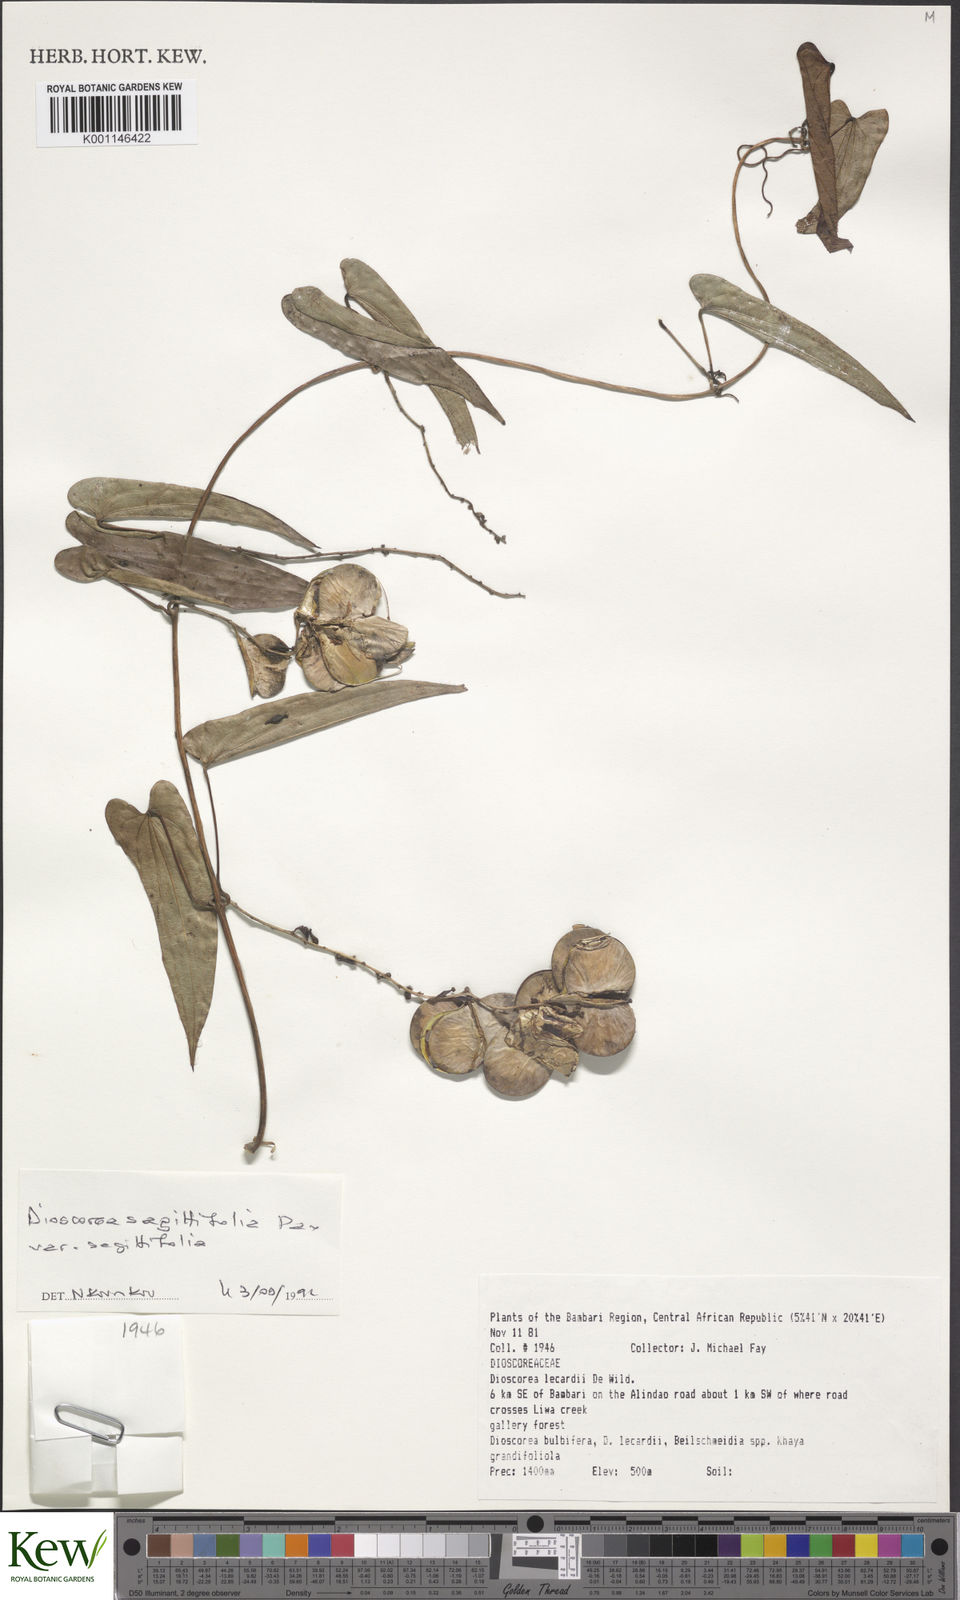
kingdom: Plantae
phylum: Tracheophyta
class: Liliopsida
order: Dioscoreales
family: Dioscoreaceae
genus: Dioscorea
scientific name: Dioscorea sagittifolia
